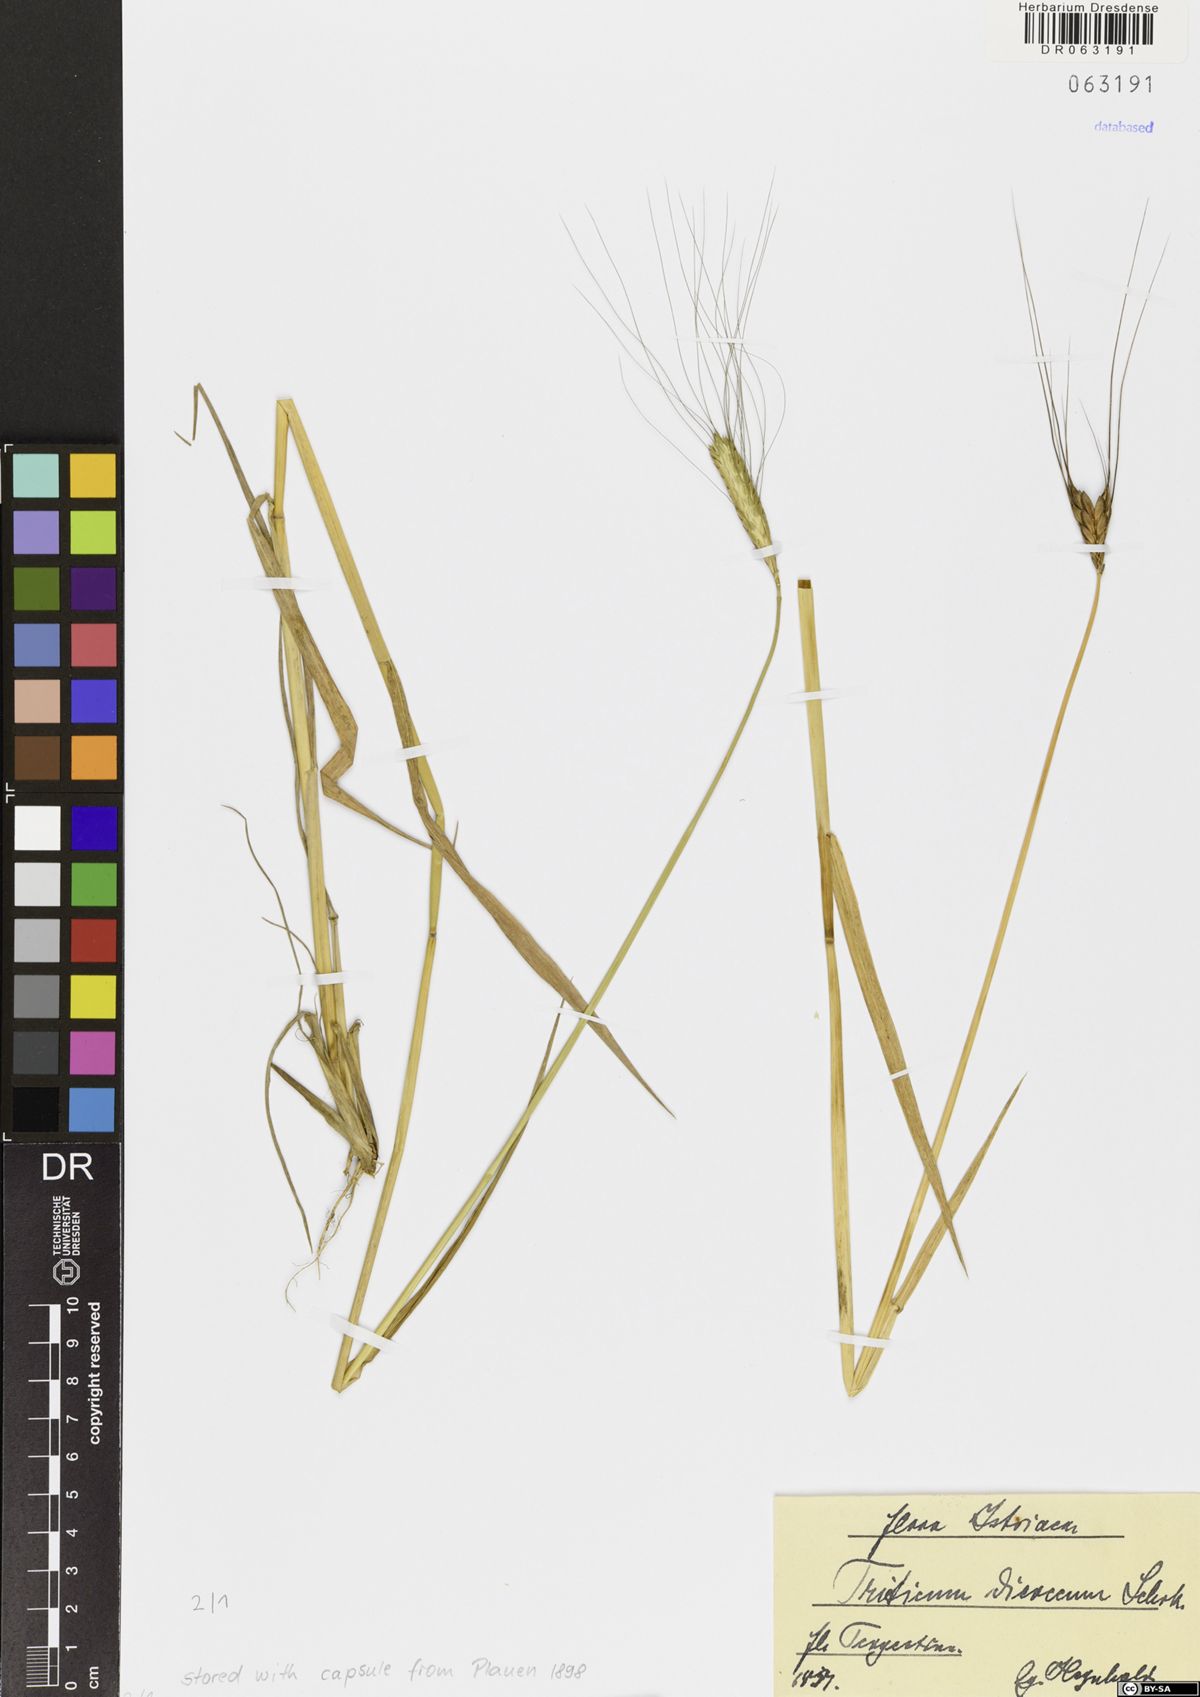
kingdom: Plantae
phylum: Tracheophyta
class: Liliopsida
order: Poales
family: Poaceae
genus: Triticum
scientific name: Triticum turgidum
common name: Rivet wheat
